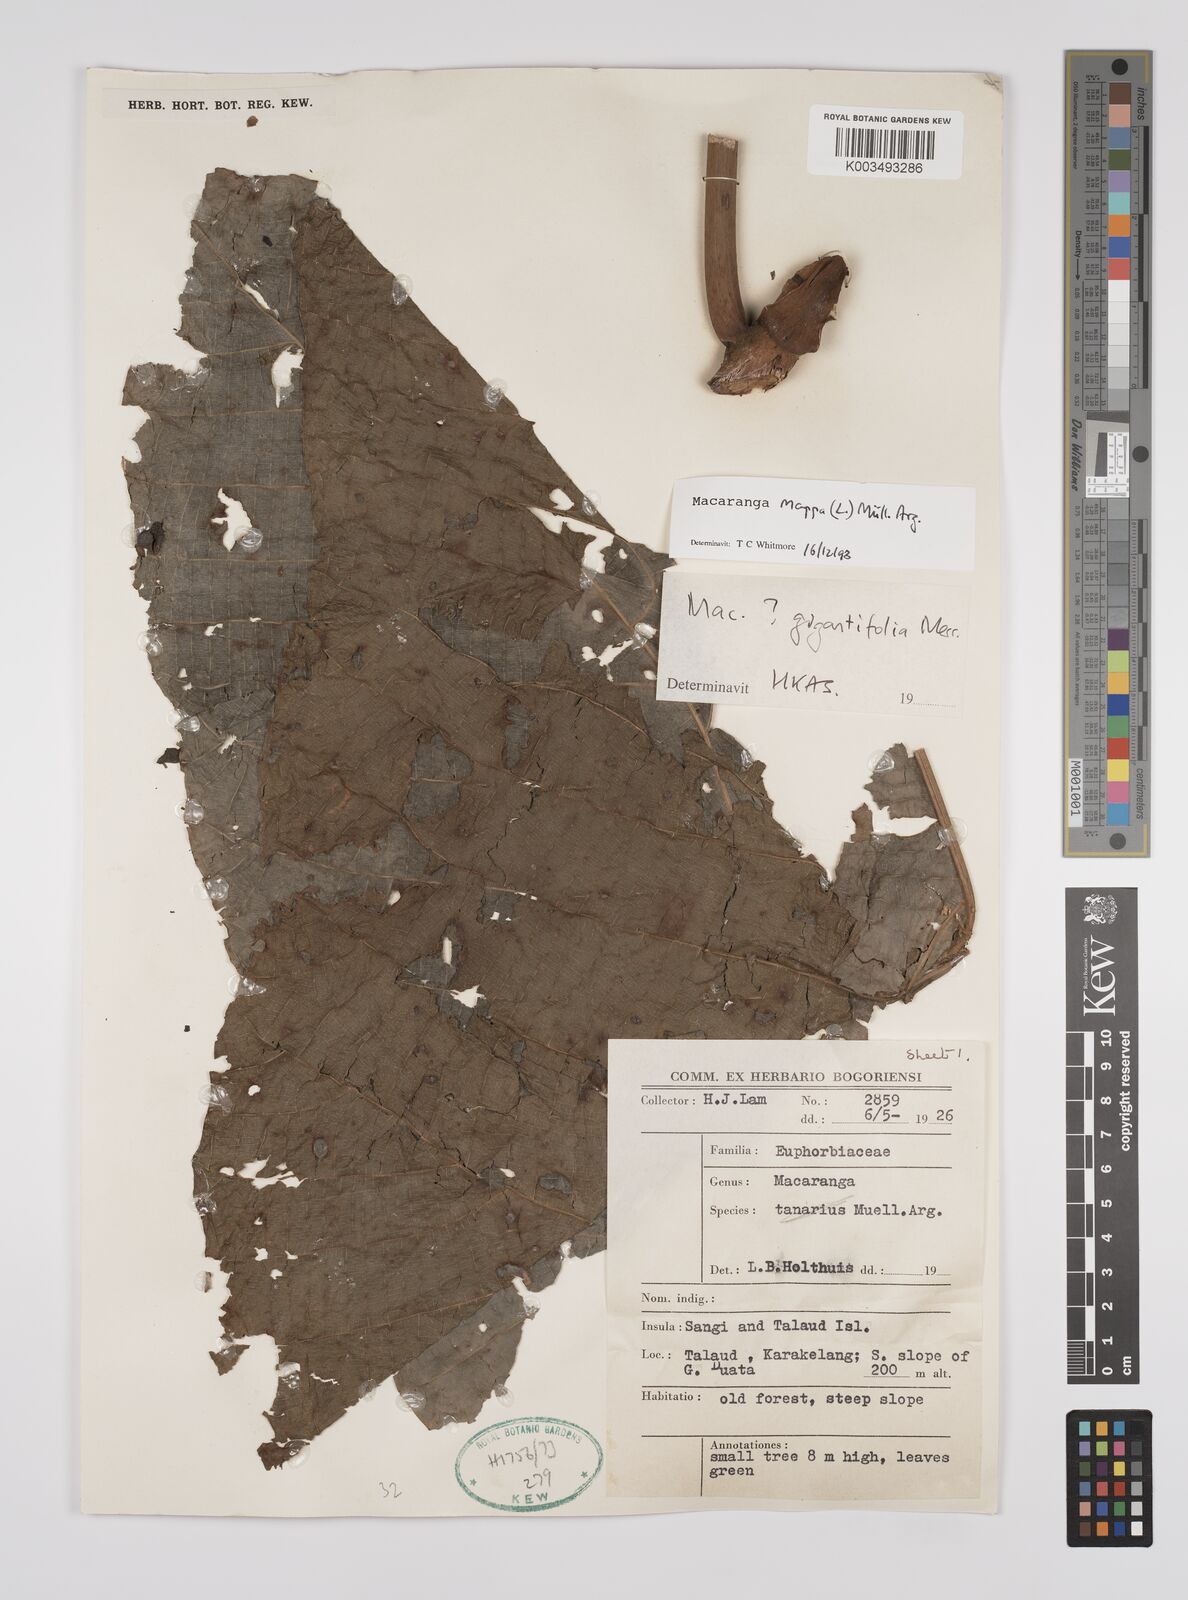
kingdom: Plantae
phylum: Tracheophyta
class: Magnoliopsida
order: Malpighiales
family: Euphorbiaceae
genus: Macaranga
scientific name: Macaranga mappa
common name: Pengua
